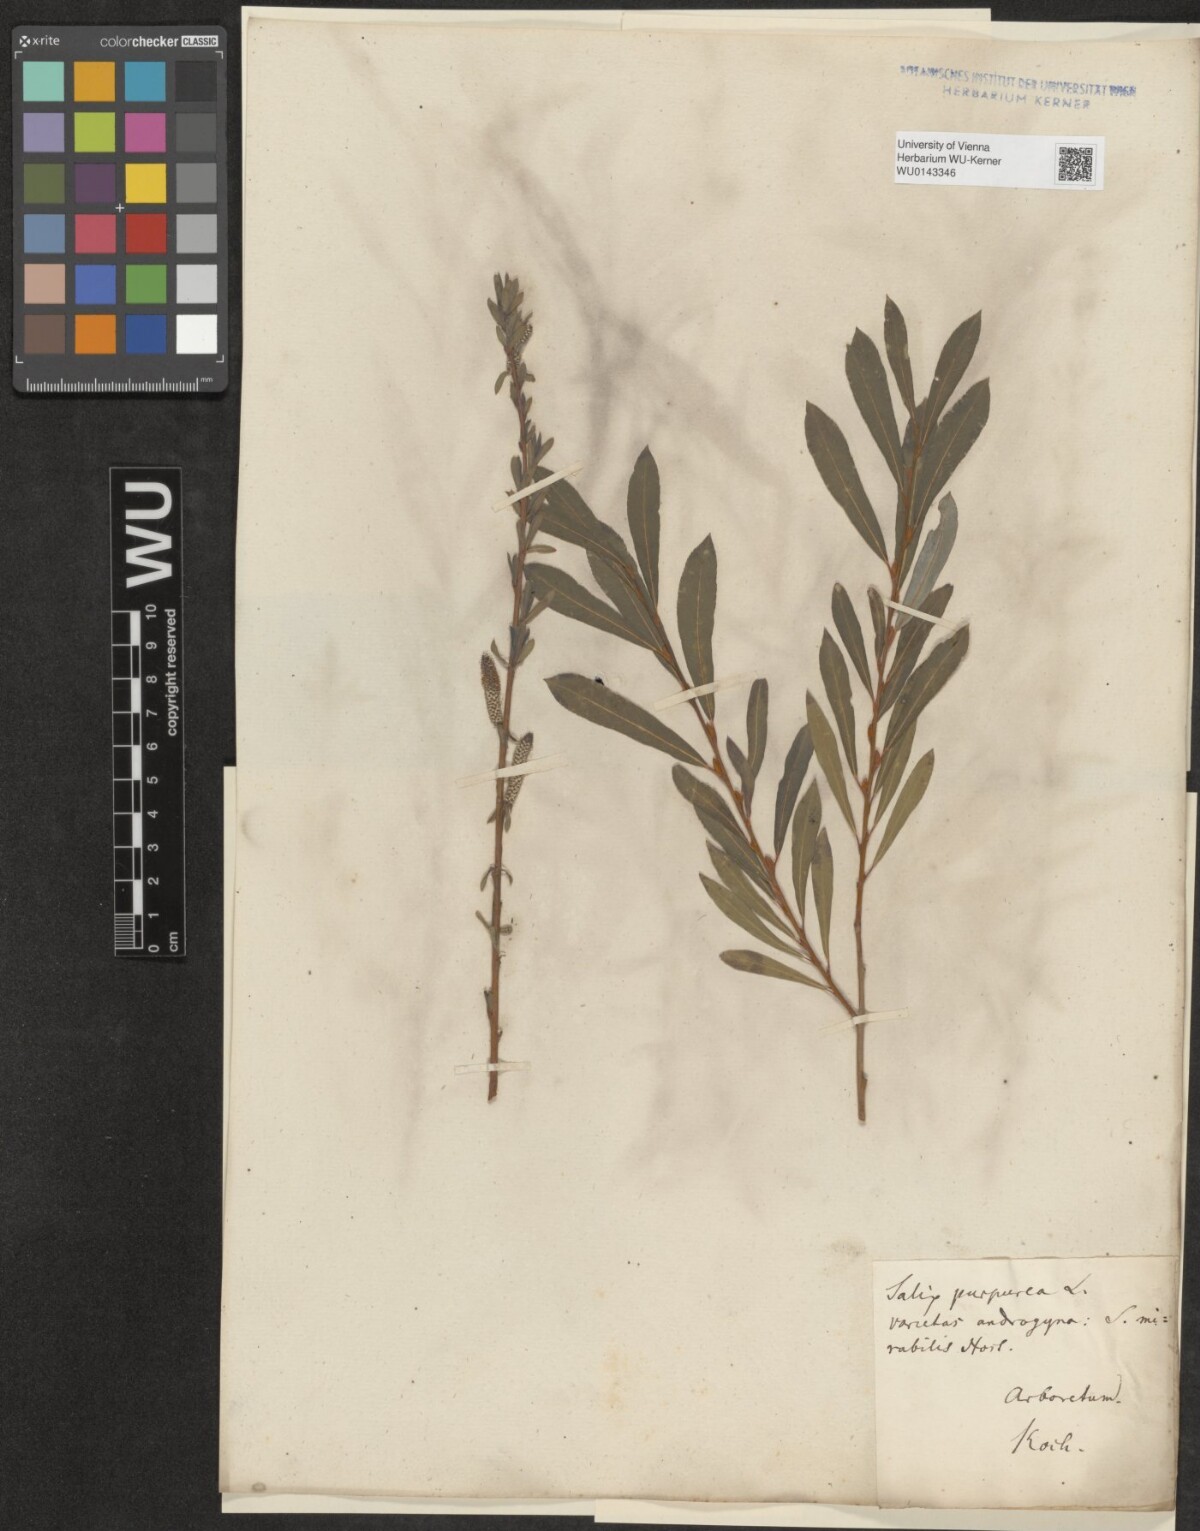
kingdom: Plantae
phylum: Tracheophyta
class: Magnoliopsida
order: Malpighiales
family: Salicaceae
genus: Salix
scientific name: Salix purpurea
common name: Purple willow
